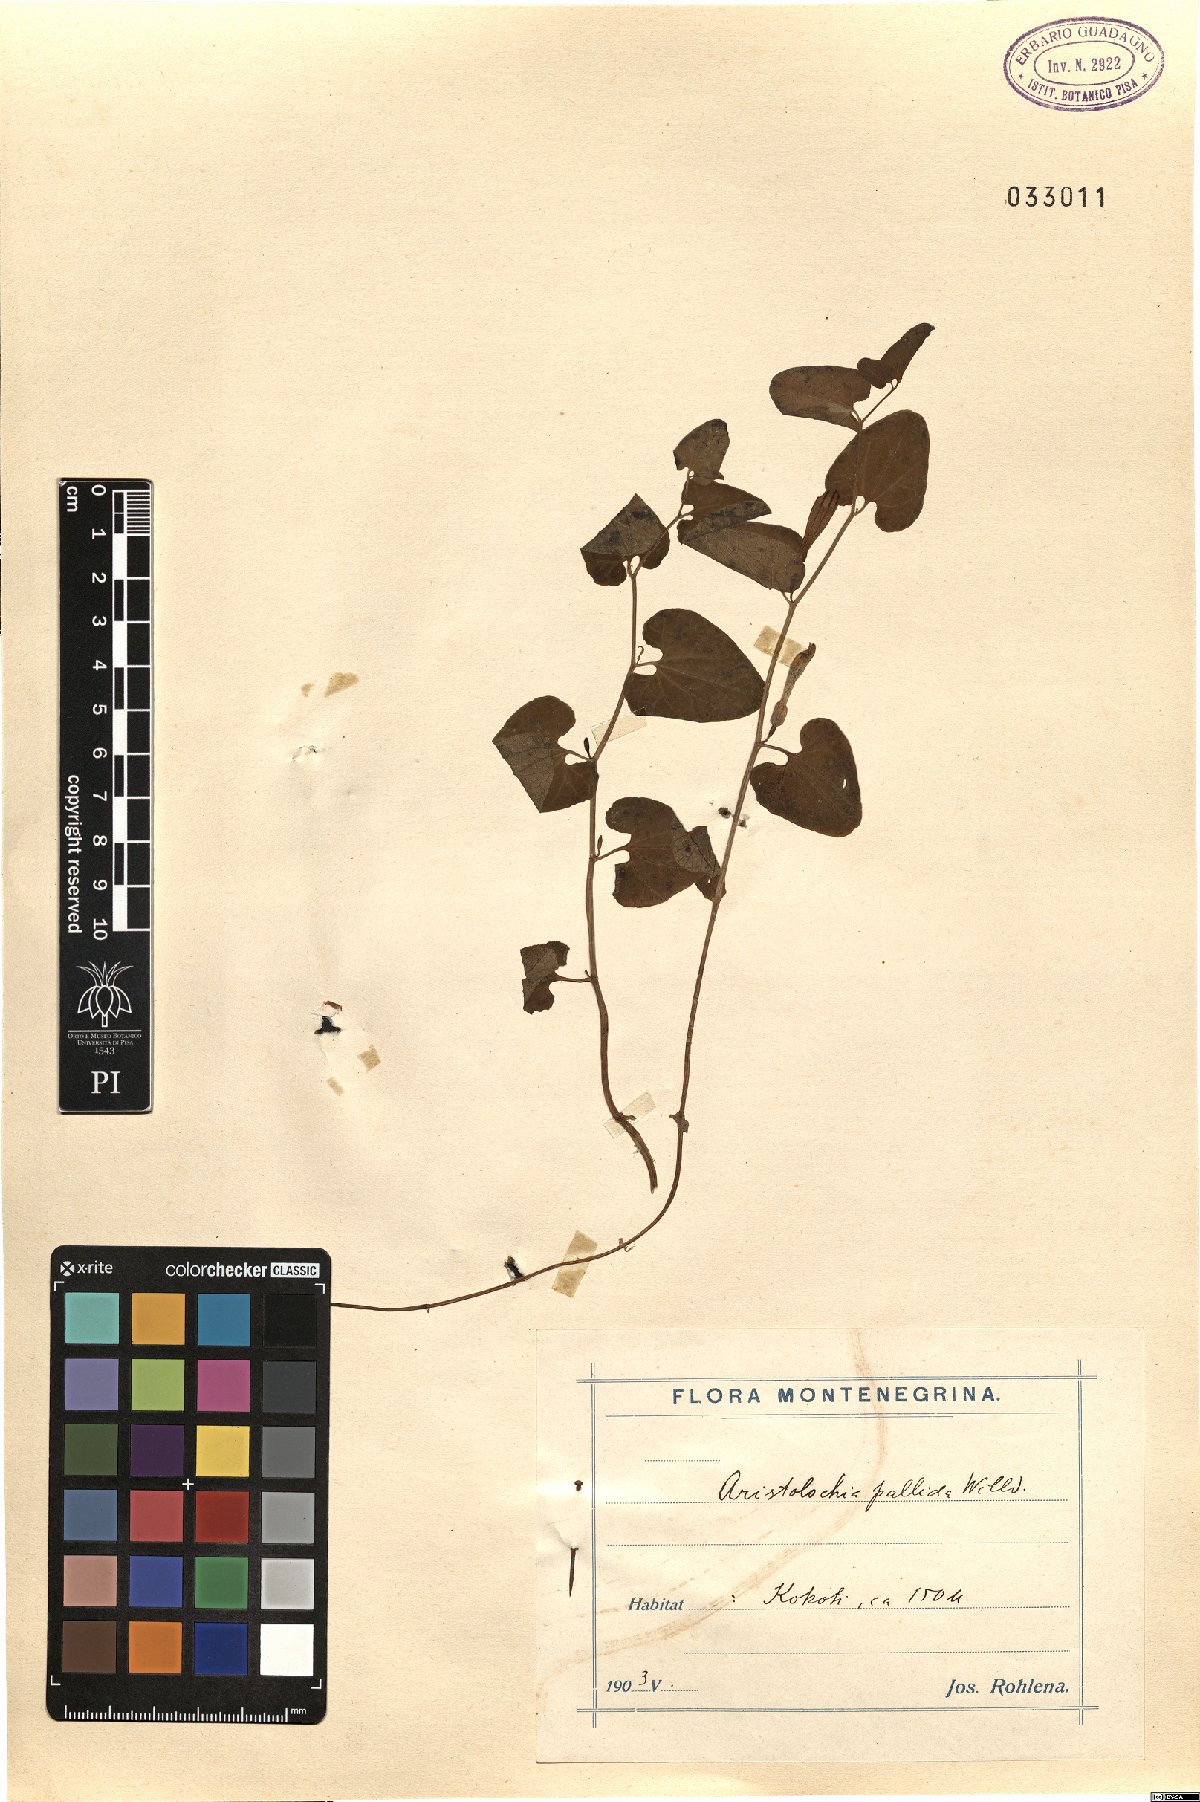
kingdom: Plantae
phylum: Tracheophyta
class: Magnoliopsida
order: Piperales
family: Aristolochiaceae
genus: Aristolochia
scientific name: Aristolochia pallida
